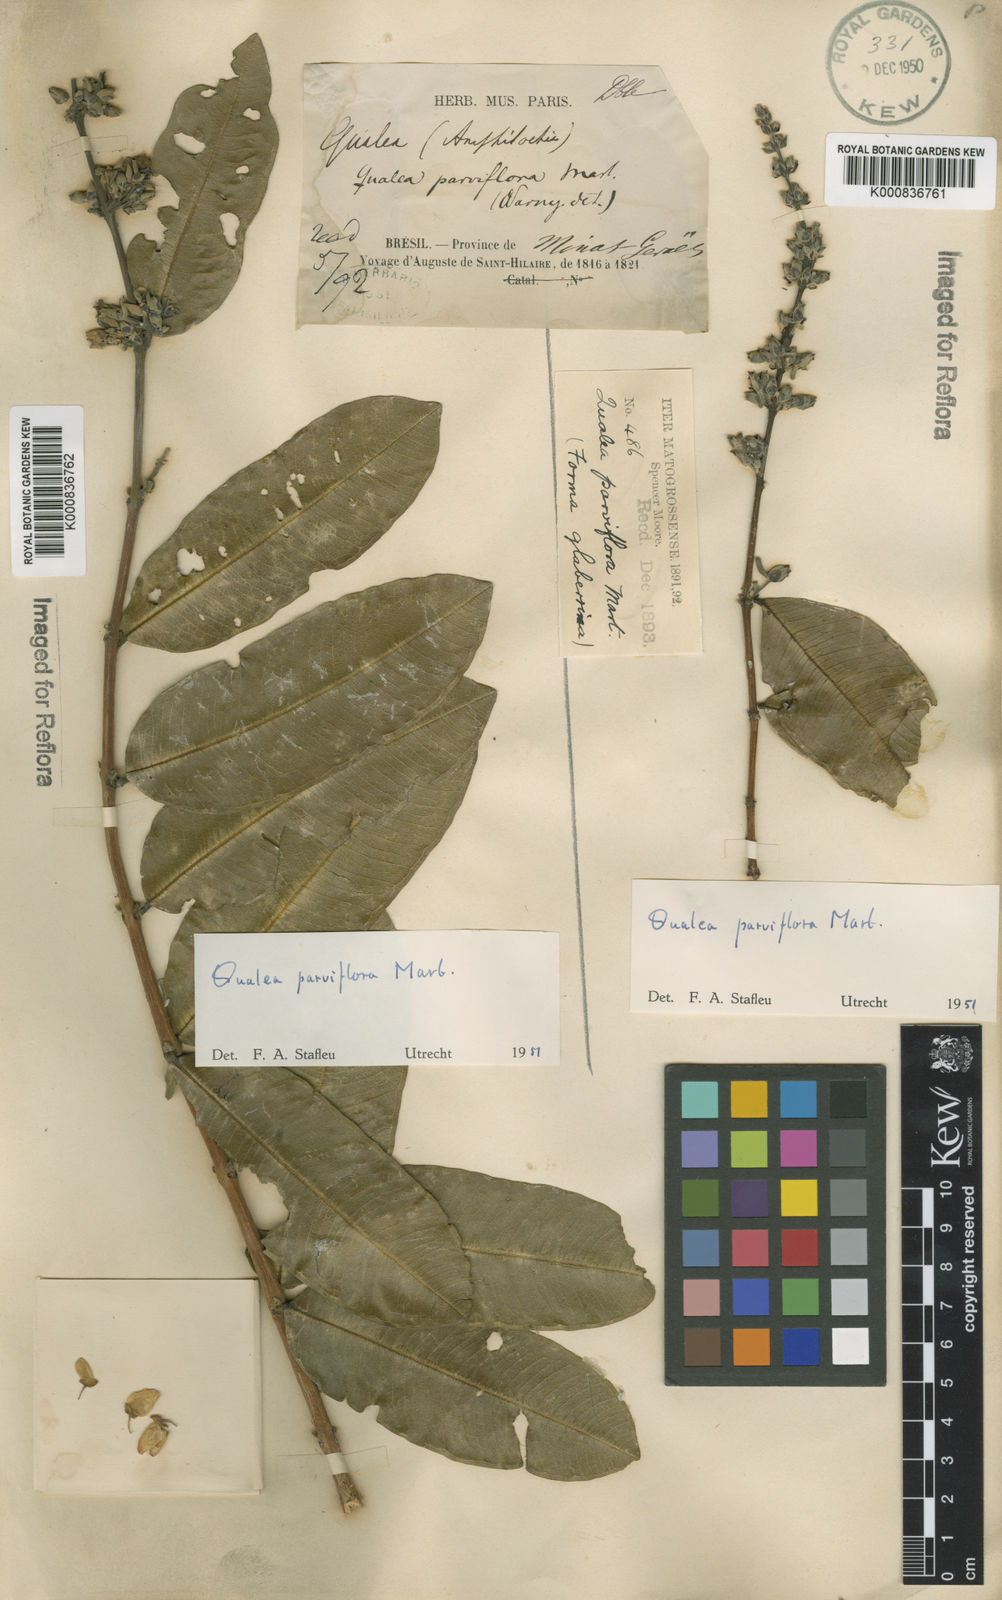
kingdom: Plantae
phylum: Tracheophyta
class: Magnoliopsida
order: Myrtales
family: Vochysiaceae
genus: Qualea
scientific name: Qualea parviflora
